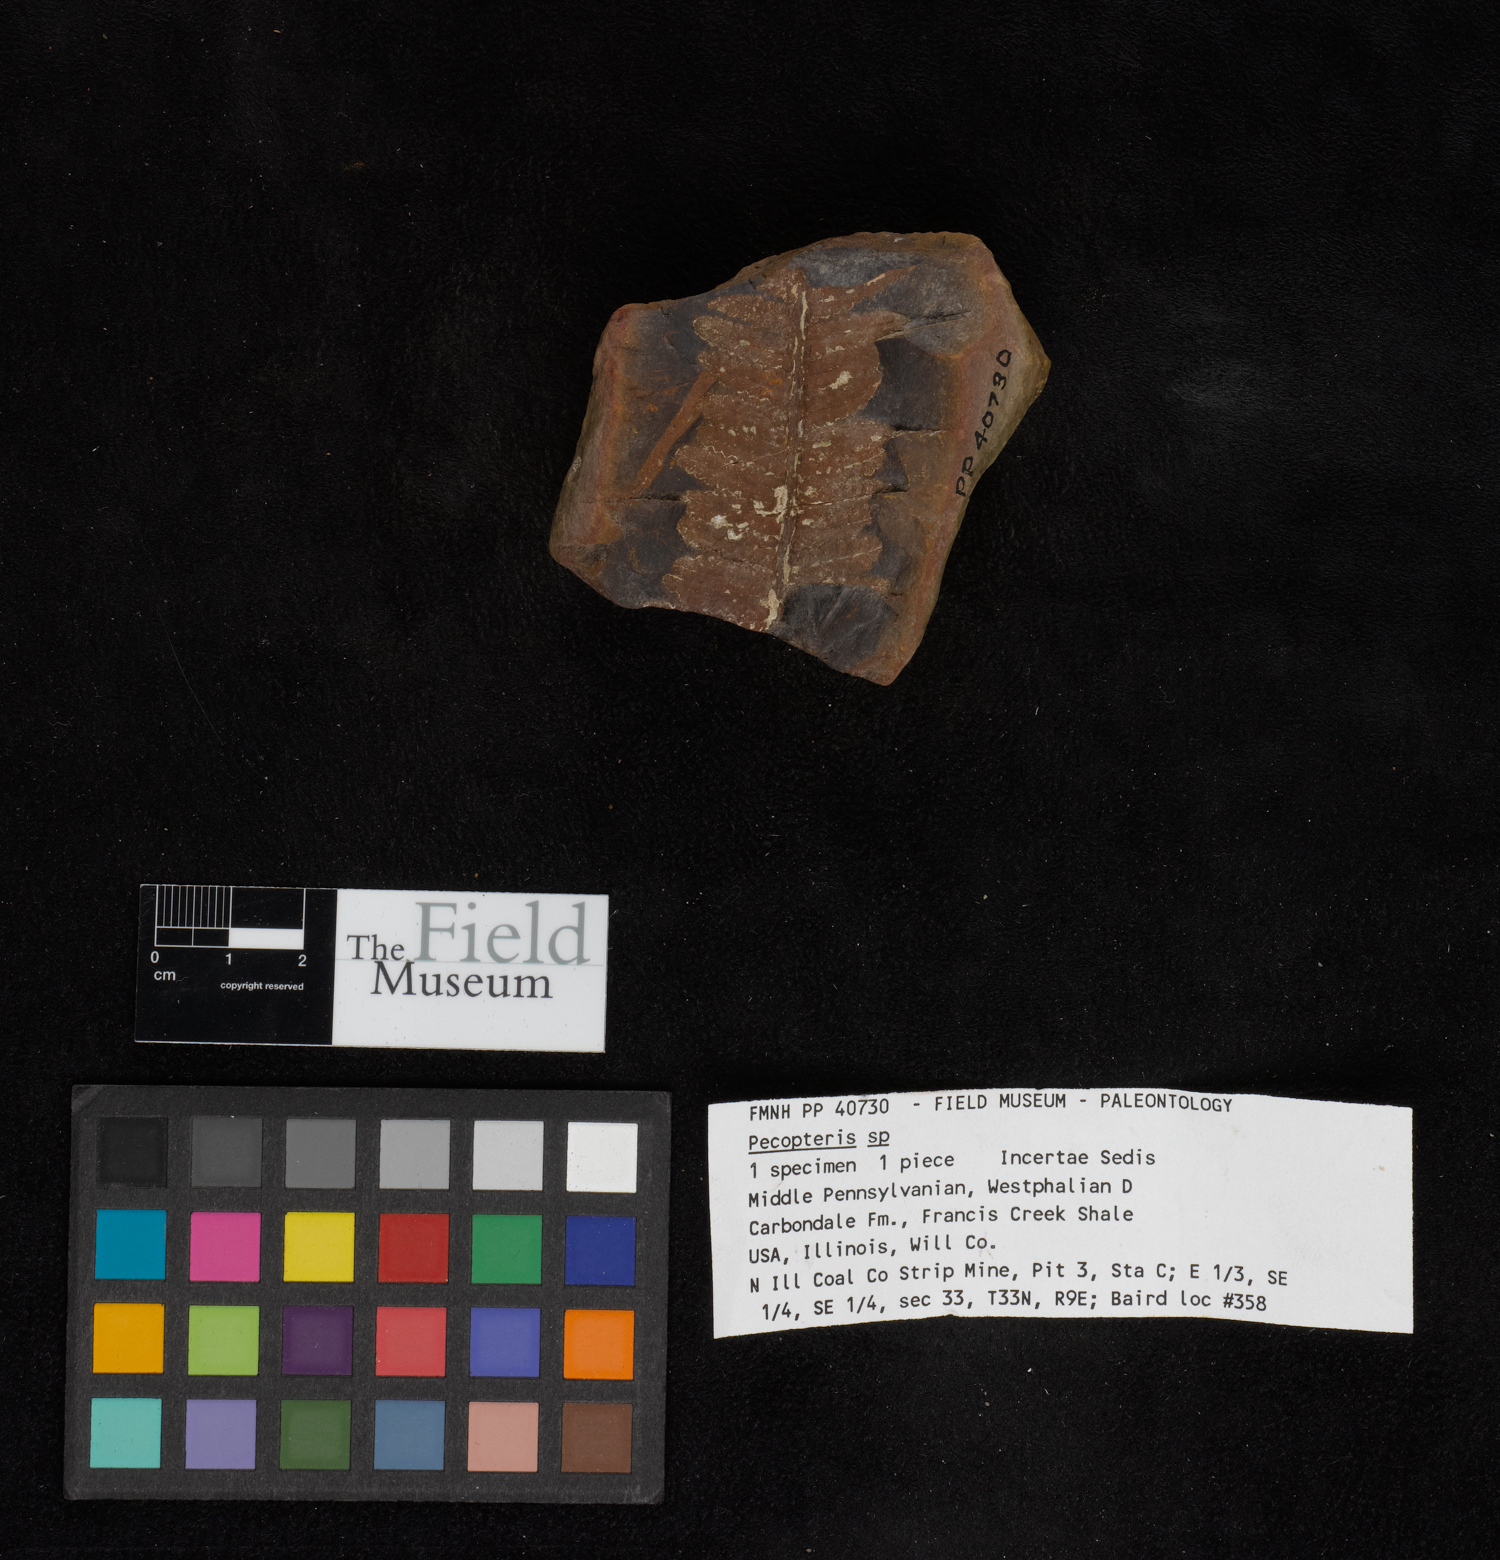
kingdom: Plantae
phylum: Tracheophyta
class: Polypodiopsida
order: Marattiales
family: Asterothecaceae
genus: Pecopteris
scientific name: Pecopteris
